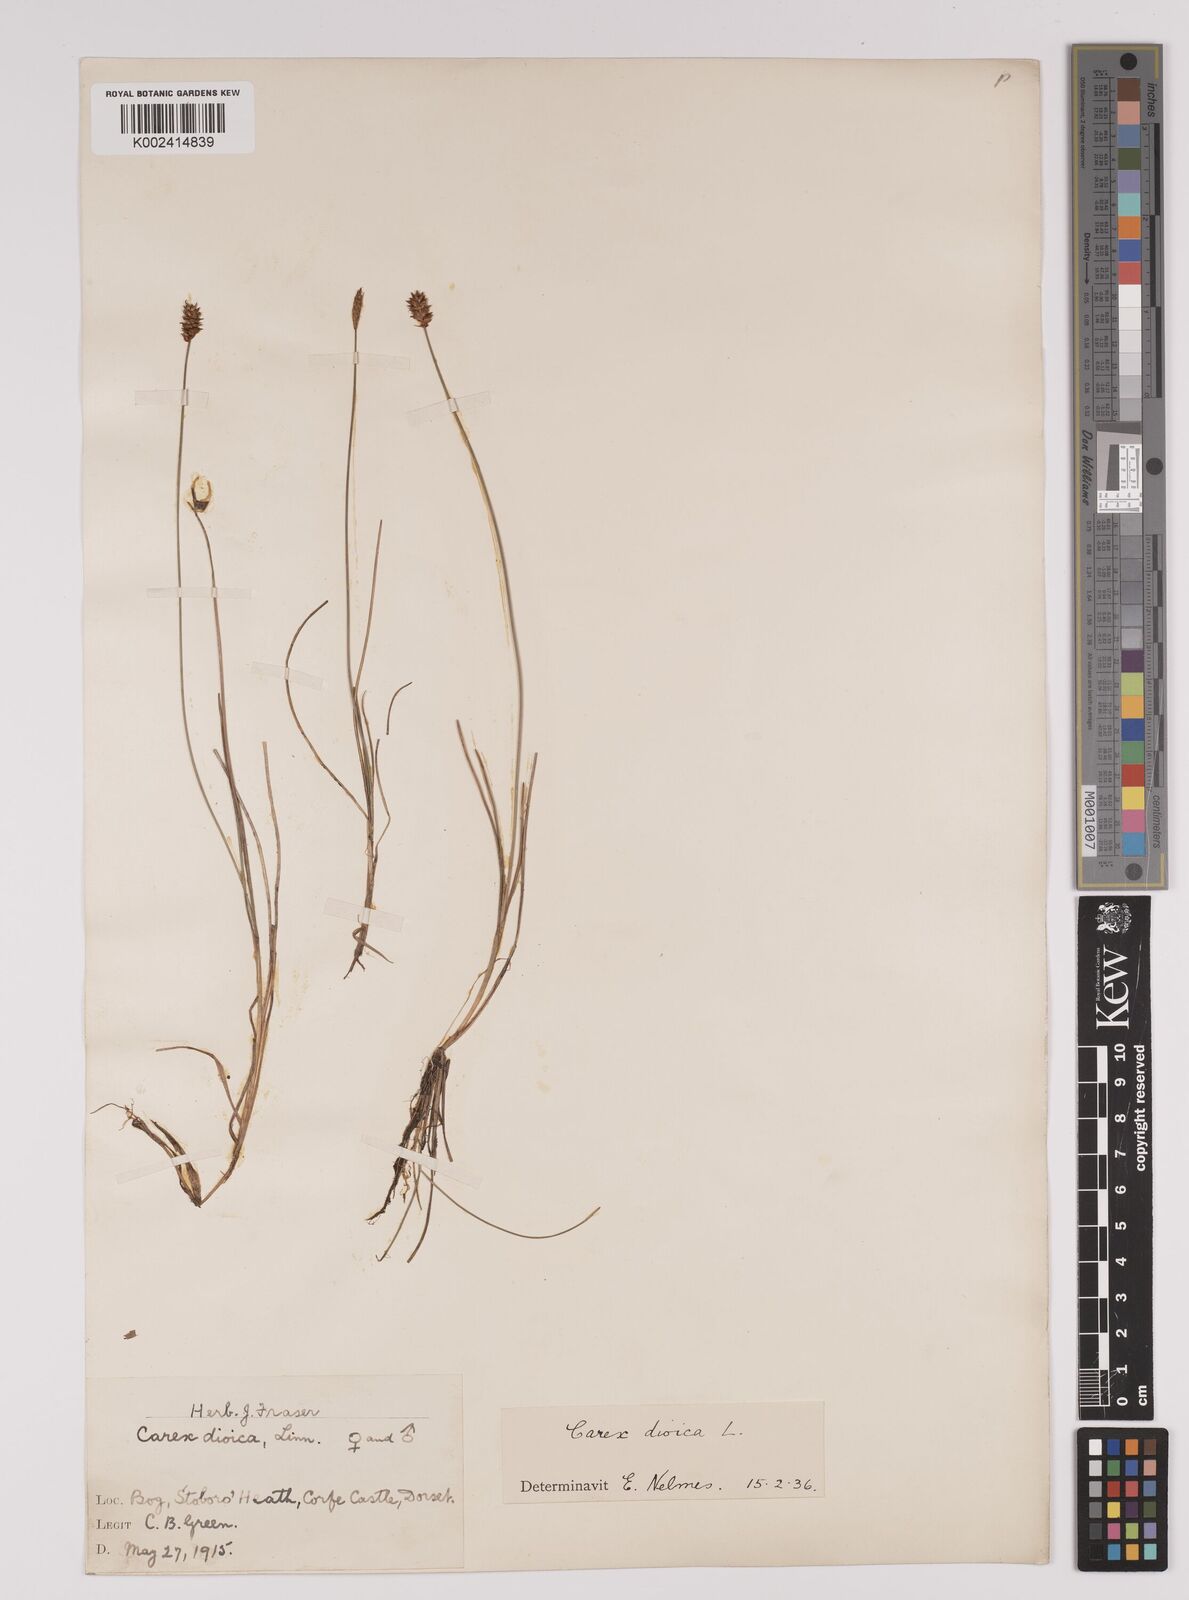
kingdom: Plantae
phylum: Tracheophyta
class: Liliopsida
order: Poales
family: Cyperaceae
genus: Carex
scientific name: Carex dioica
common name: Dioecious sedge
